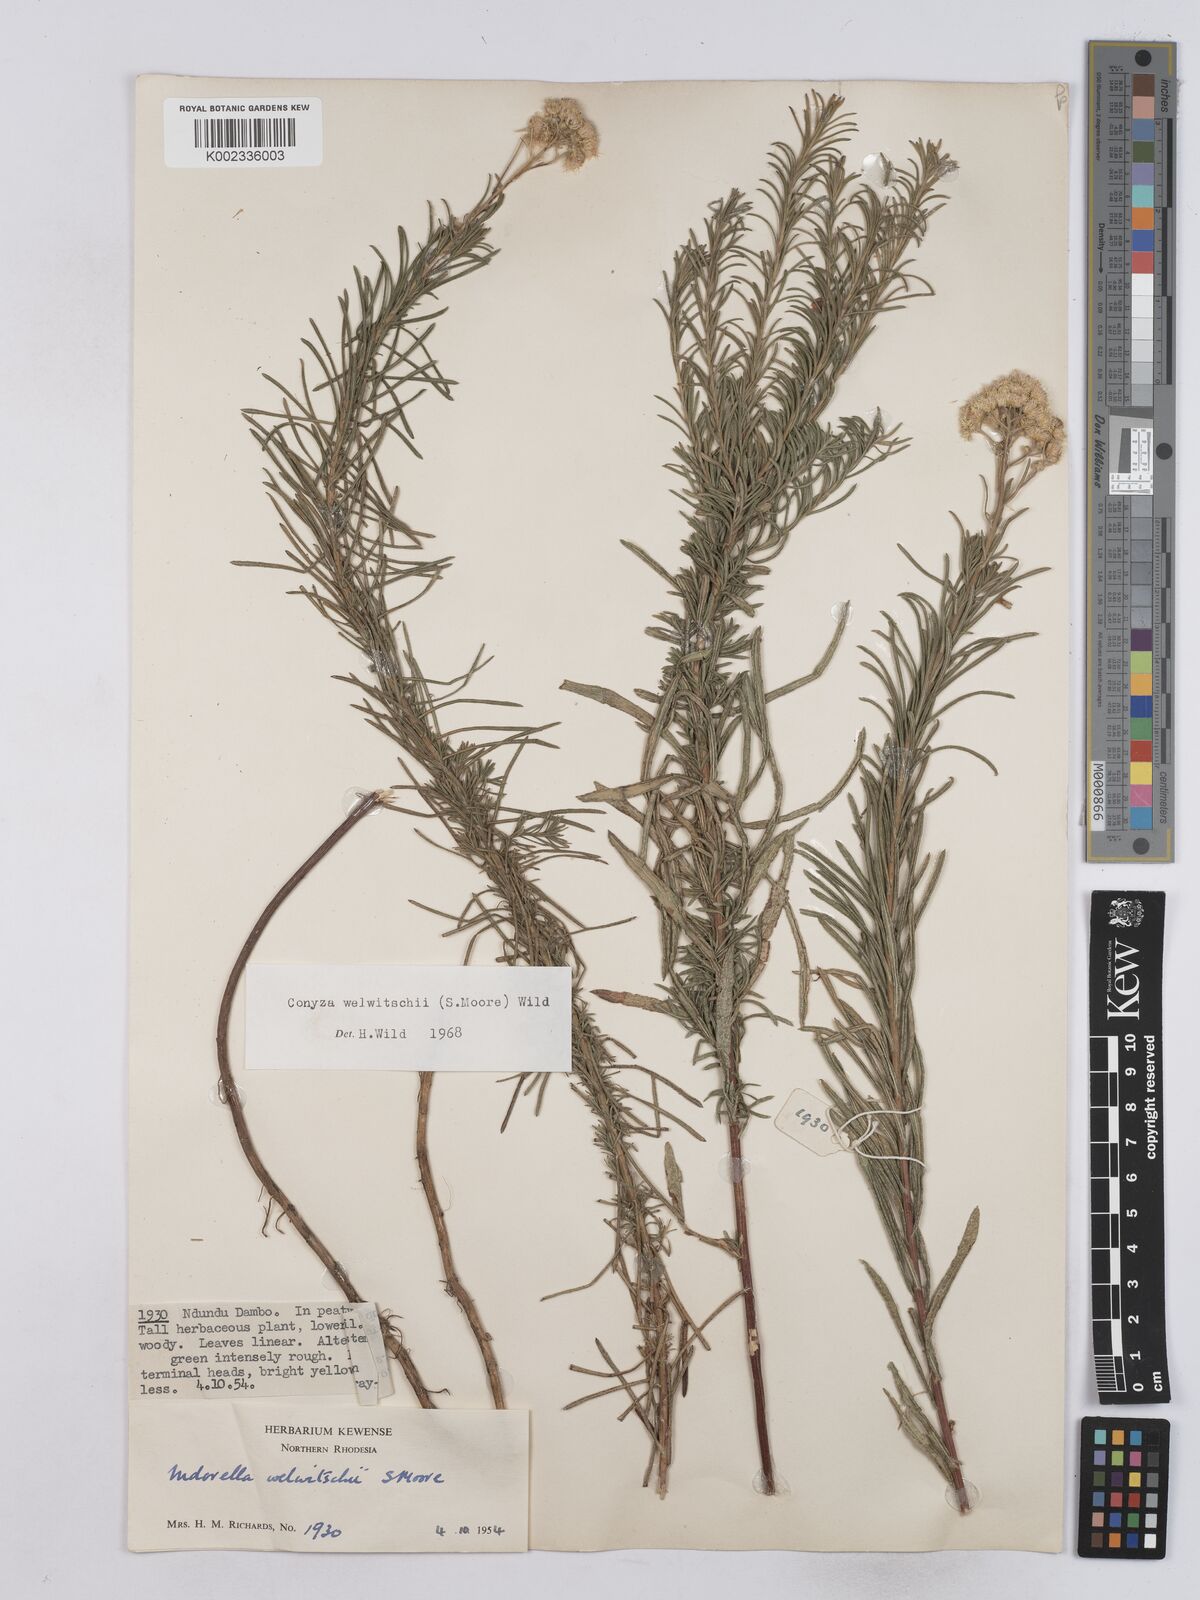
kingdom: Plantae
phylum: Tracheophyta
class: Magnoliopsida
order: Asterales
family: Asteraceae
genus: Nidorella
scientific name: Nidorella welwitschii
